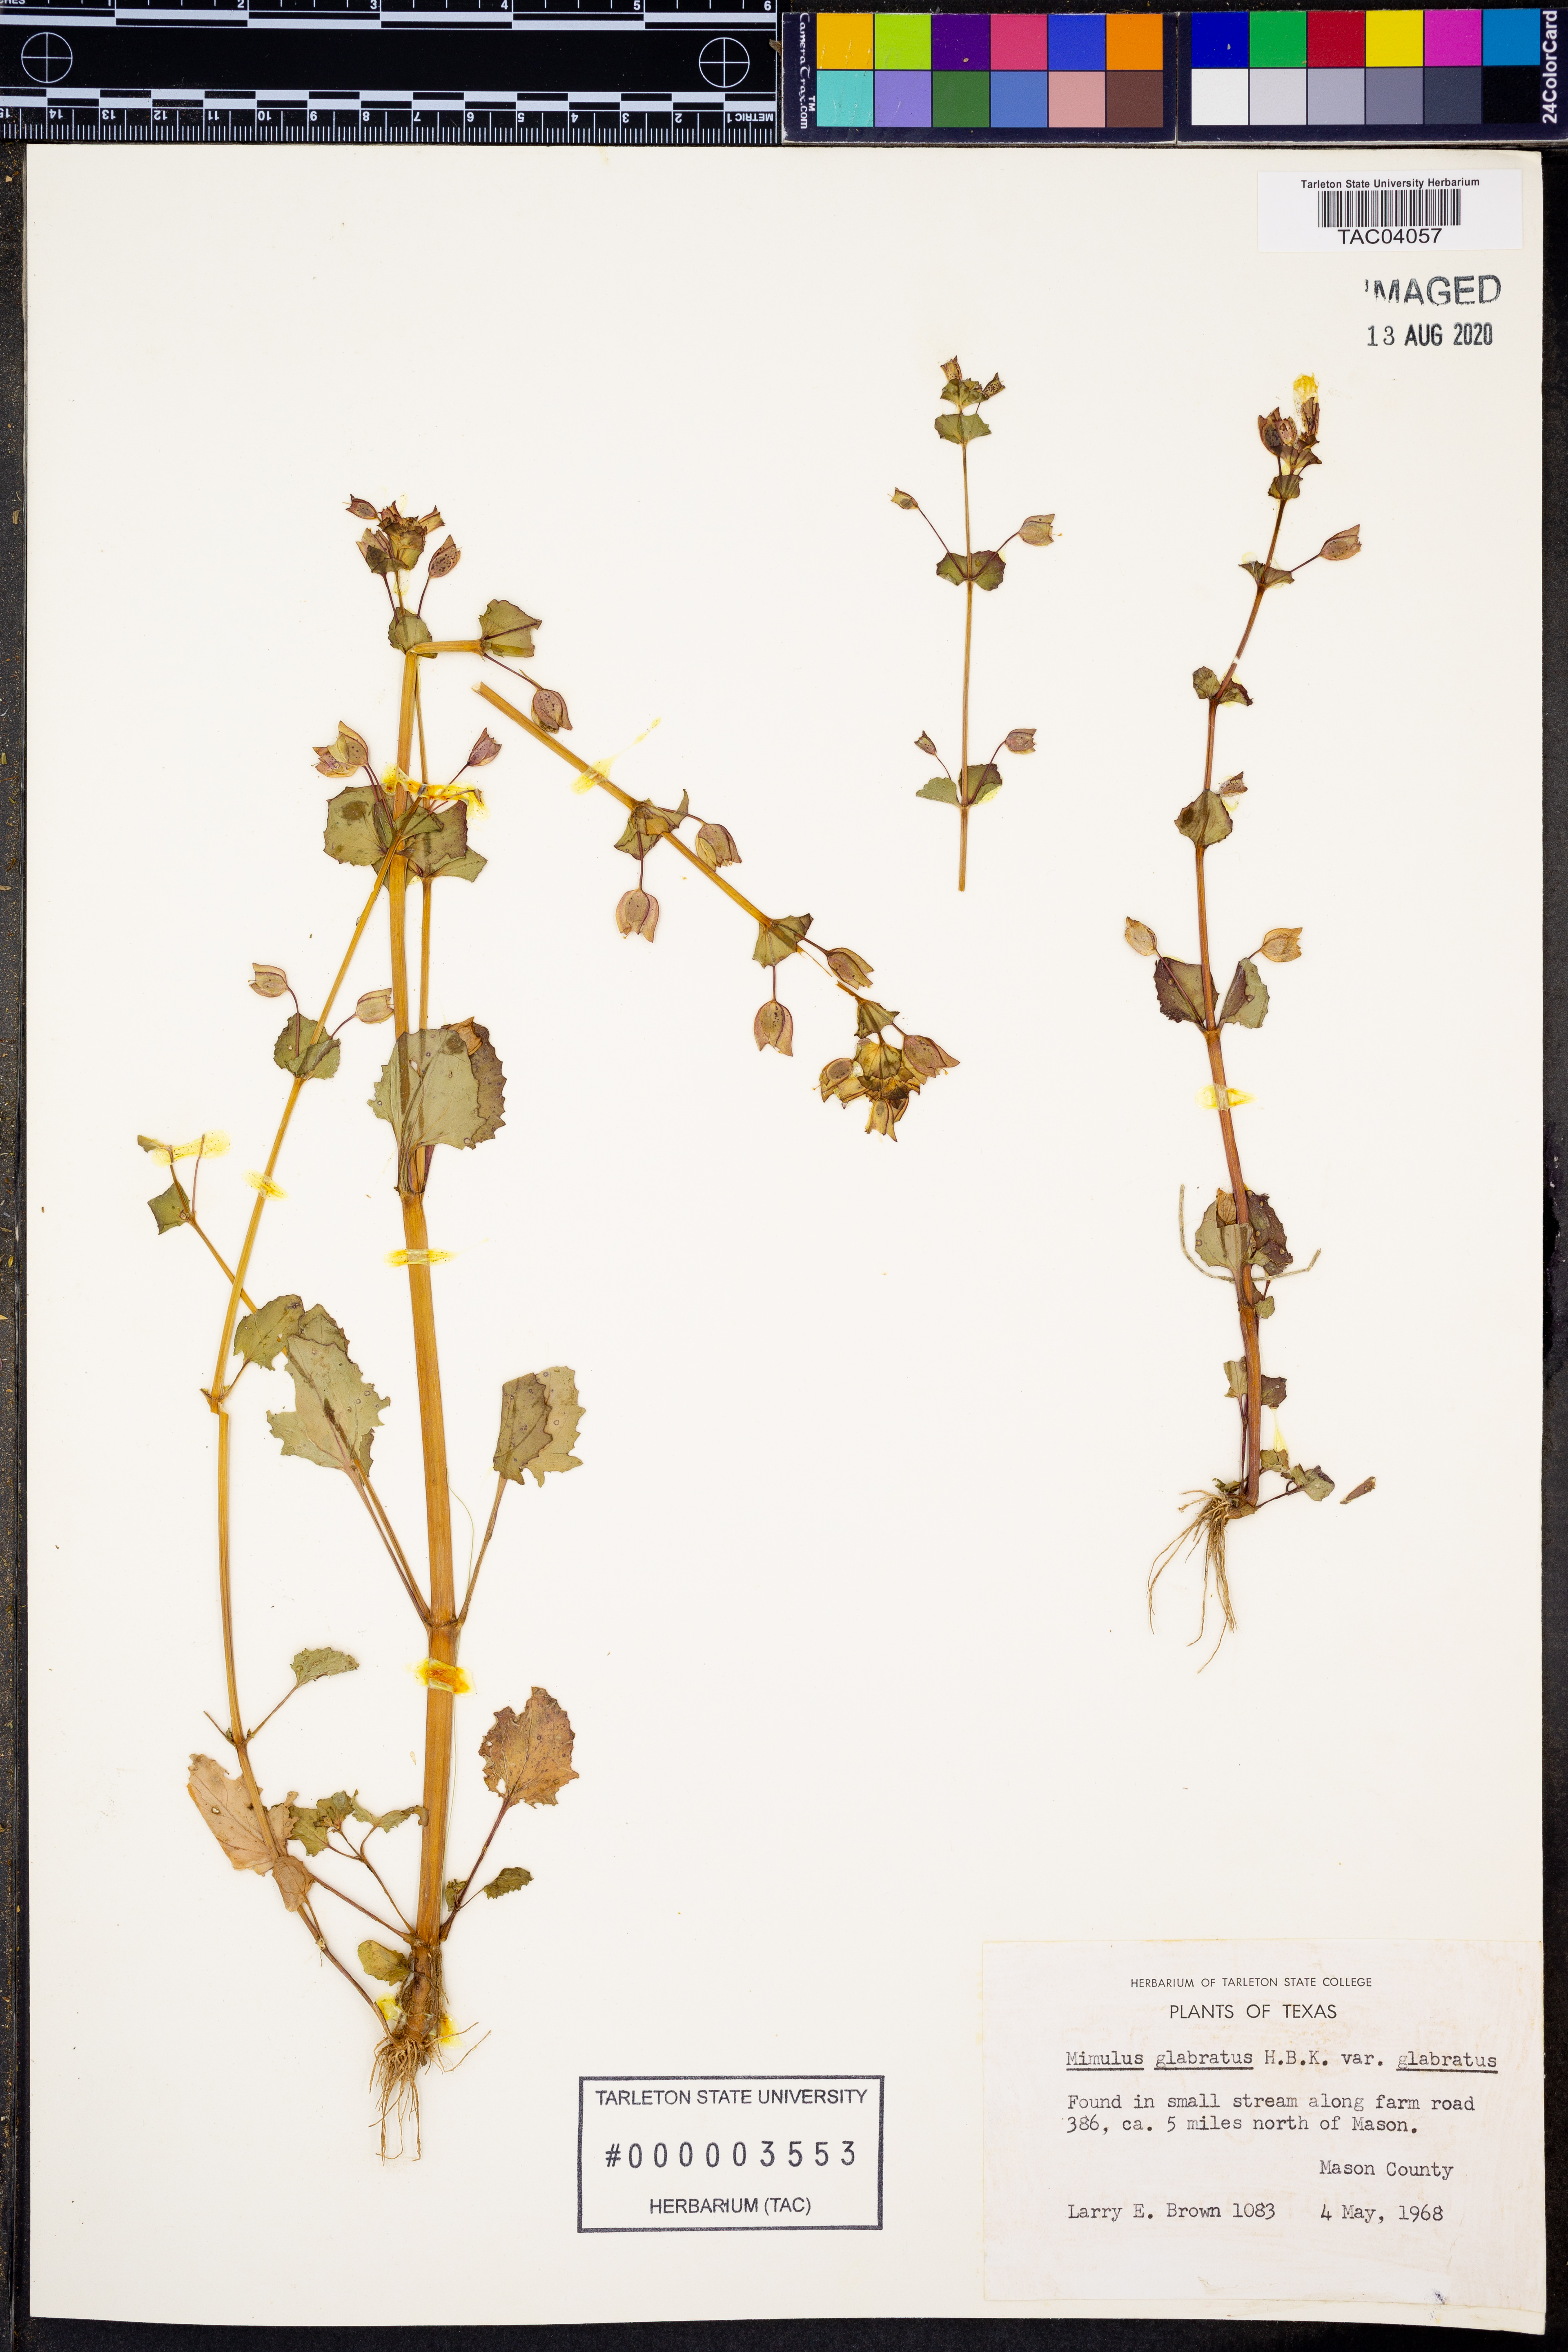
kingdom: Plantae
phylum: Tracheophyta
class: Magnoliopsida
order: Lamiales
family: Phrymaceae
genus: Erythranthe
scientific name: Erythranthe glabrata
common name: Round-leaved monkeyflower
